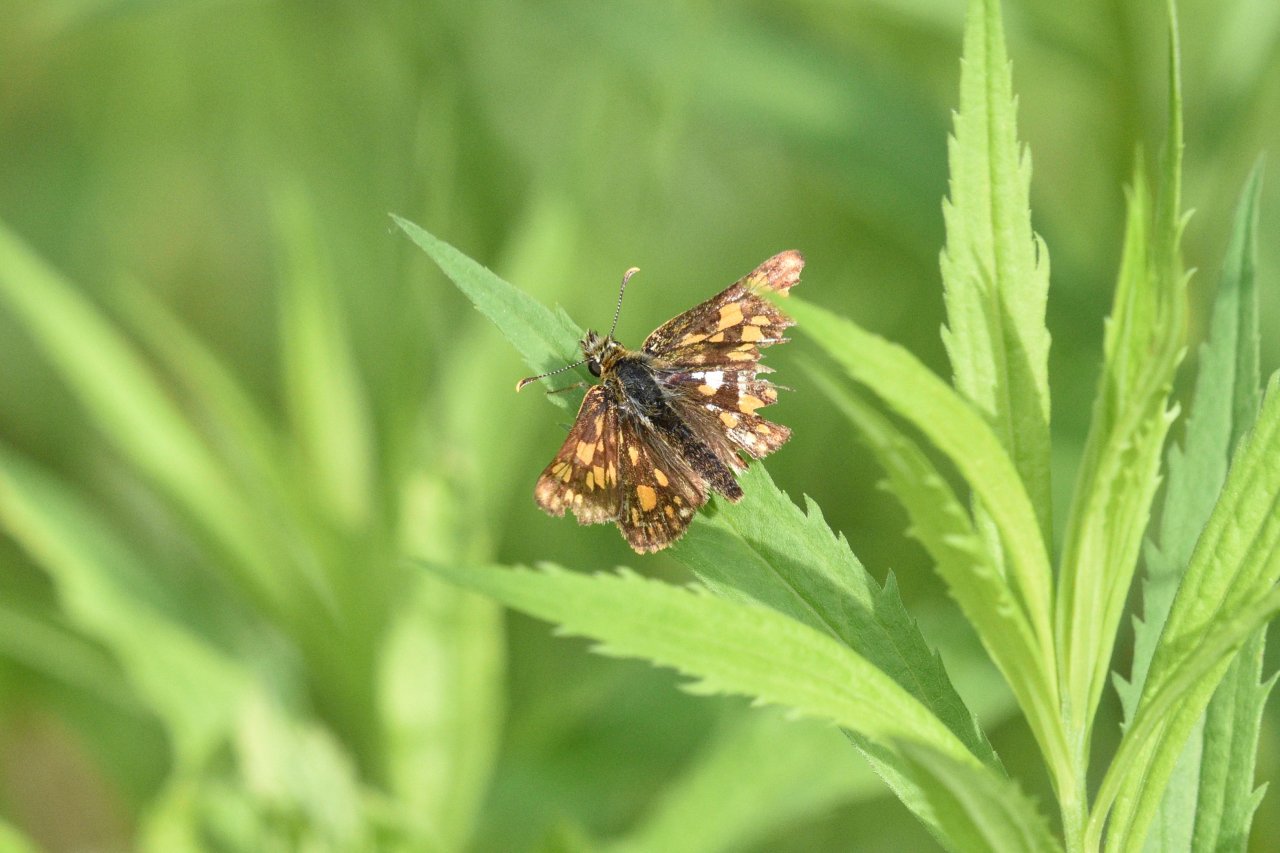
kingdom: Animalia
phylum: Arthropoda
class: Insecta
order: Lepidoptera
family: Hesperiidae
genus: Carterocephalus
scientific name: Carterocephalus palaemon
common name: Chequered Skipper
